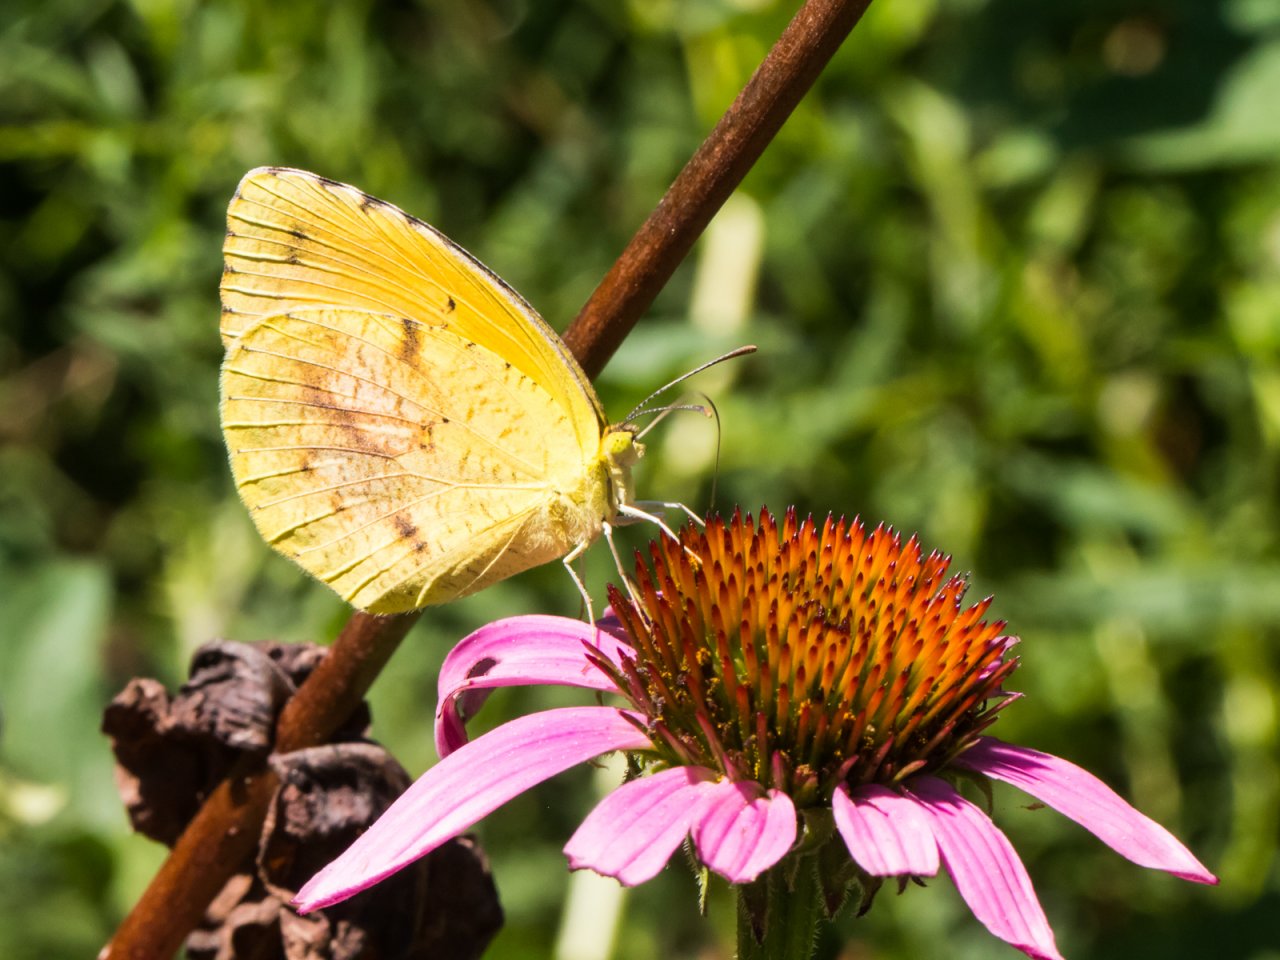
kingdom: Animalia
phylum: Arthropoda
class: Insecta
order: Lepidoptera
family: Pieridae
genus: Abaeis
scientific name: Abaeis nicippe
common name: Sleepy Orange
